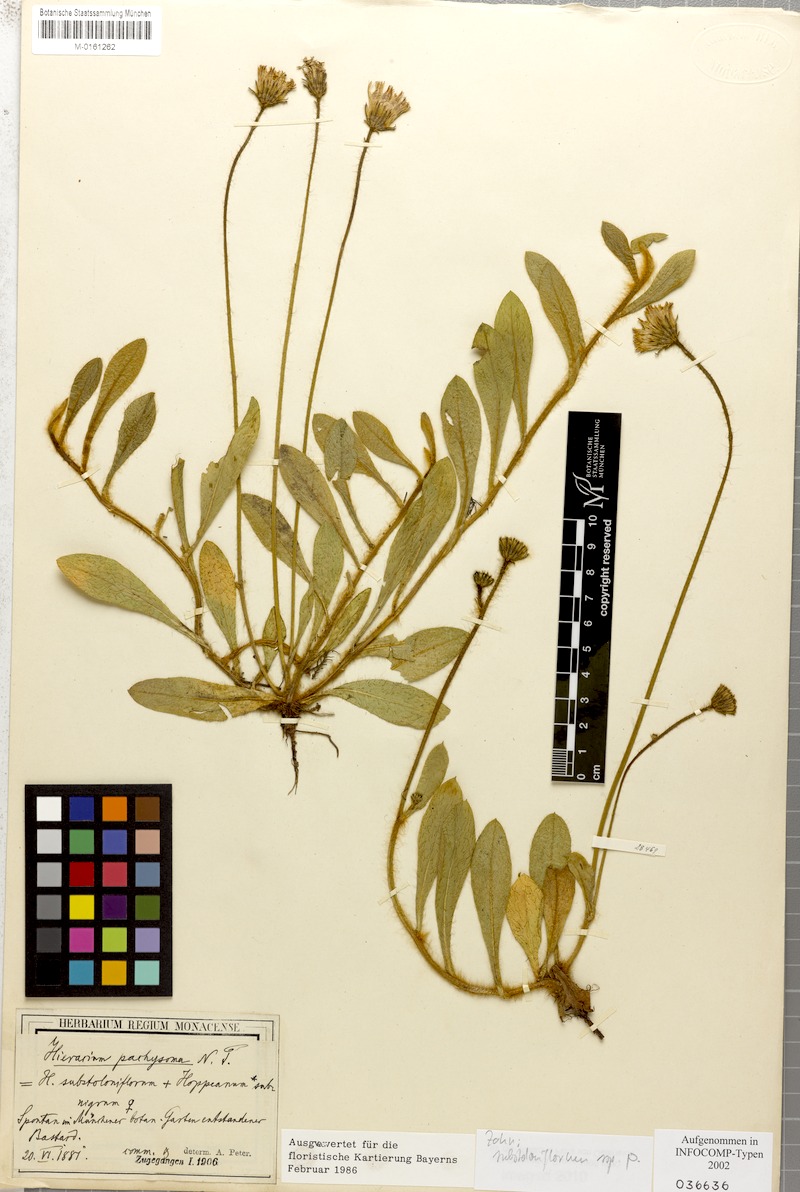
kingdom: Plantae
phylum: Tracheophyta
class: Magnoliopsida
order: Asterales
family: Asteraceae
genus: Pilosella
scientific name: Pilosella stoloniflora
